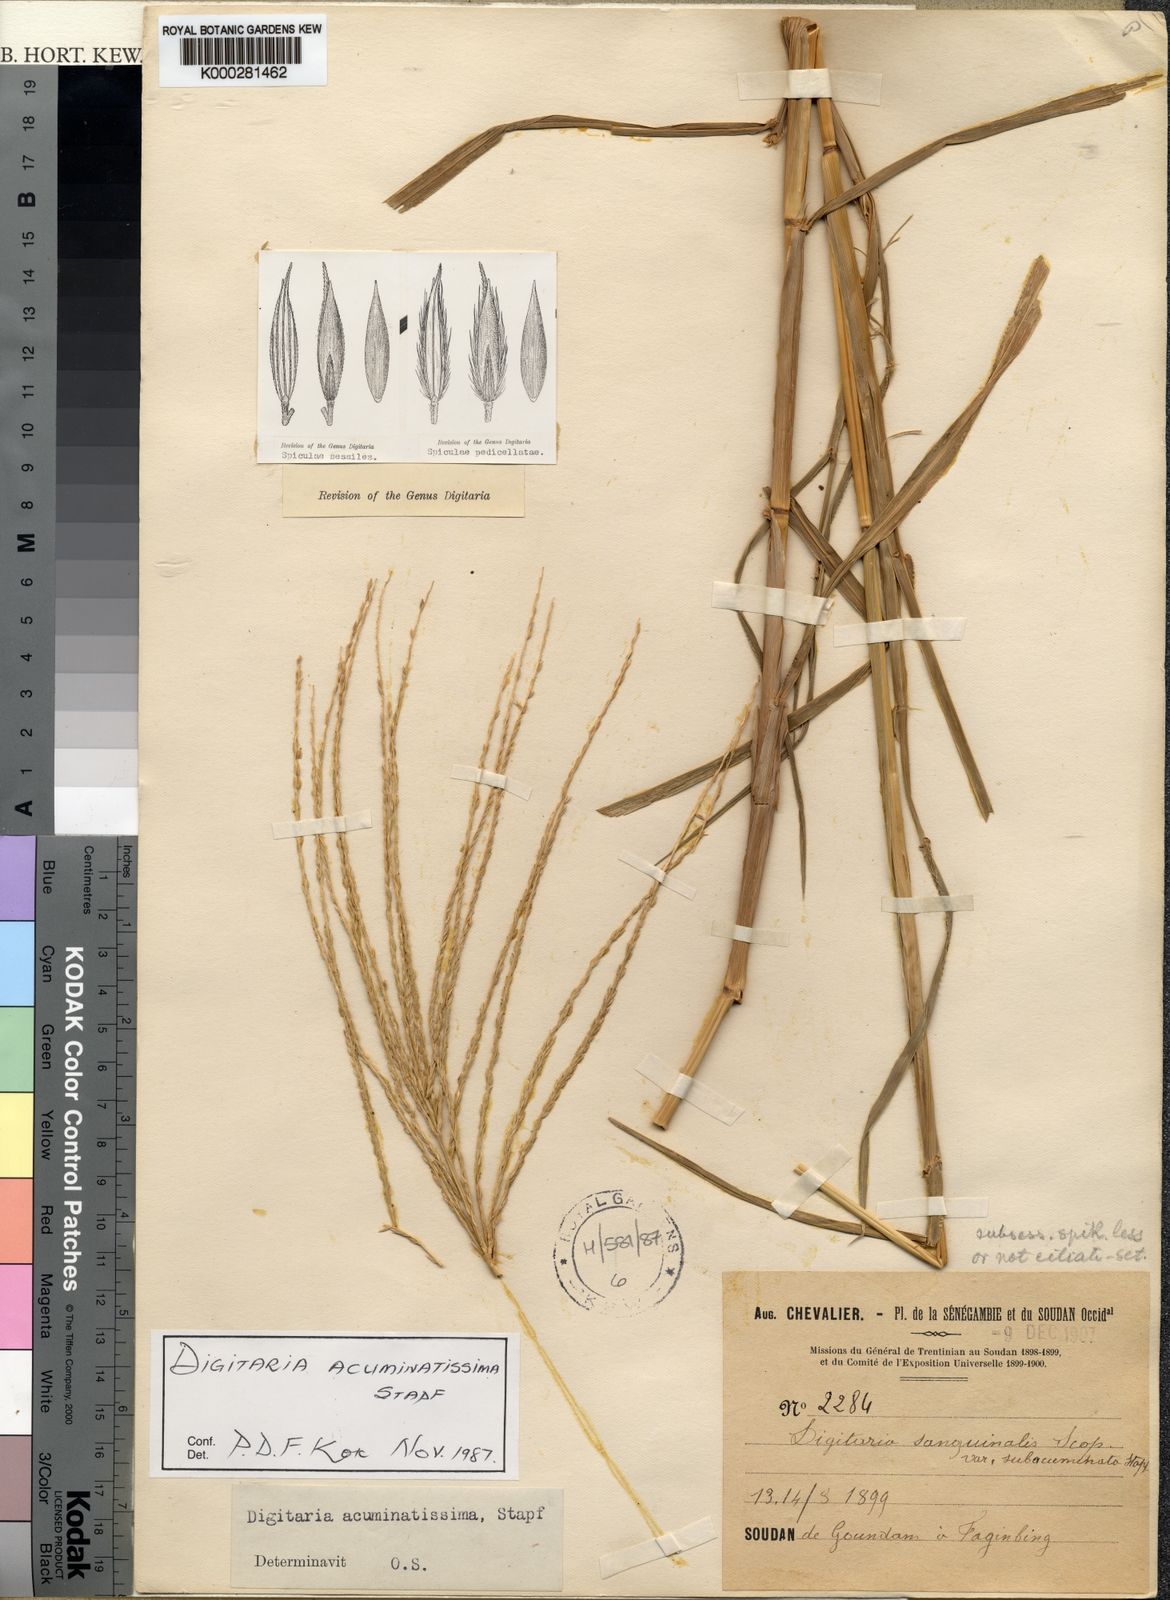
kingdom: Plantae
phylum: Tracheophyta
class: Liliopsida
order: Poales
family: Poaceae
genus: Digitaria
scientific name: Digitaria acuminatissima
